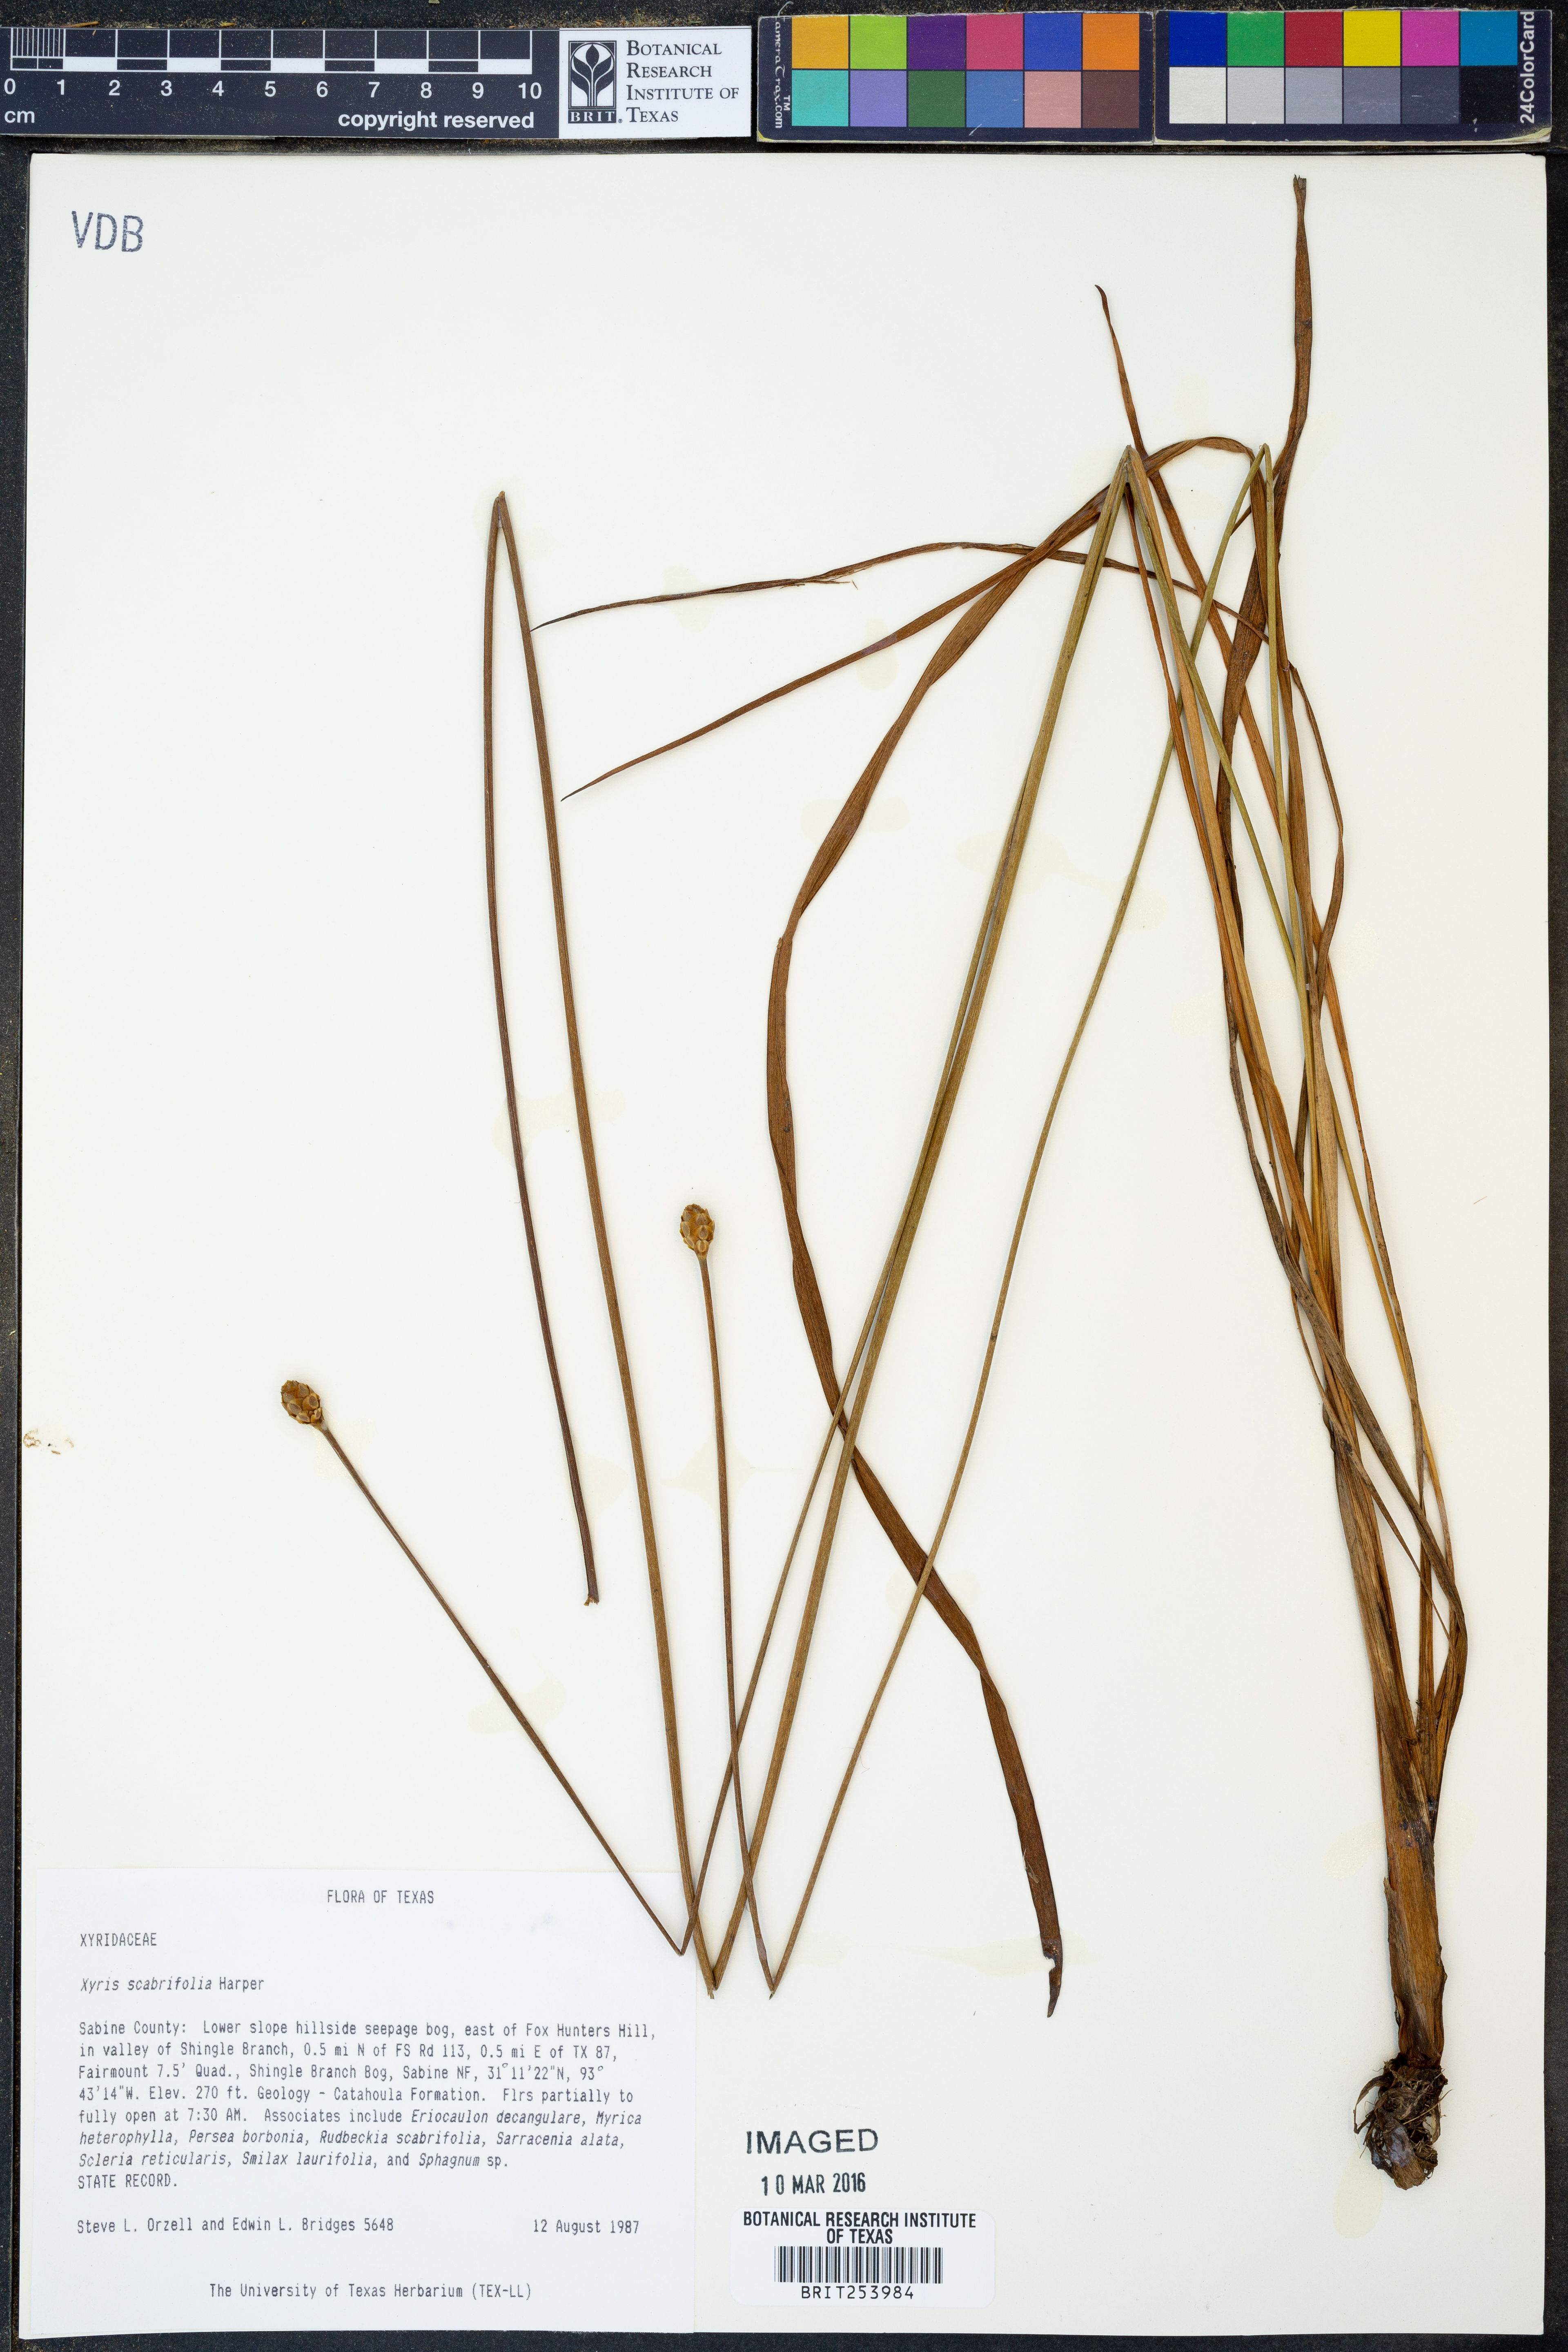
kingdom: Plantae
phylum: Tracheophyta
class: Liliopsida
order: Poales
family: Xyridaceae
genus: Xyris
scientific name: Xyris scabrifolia
